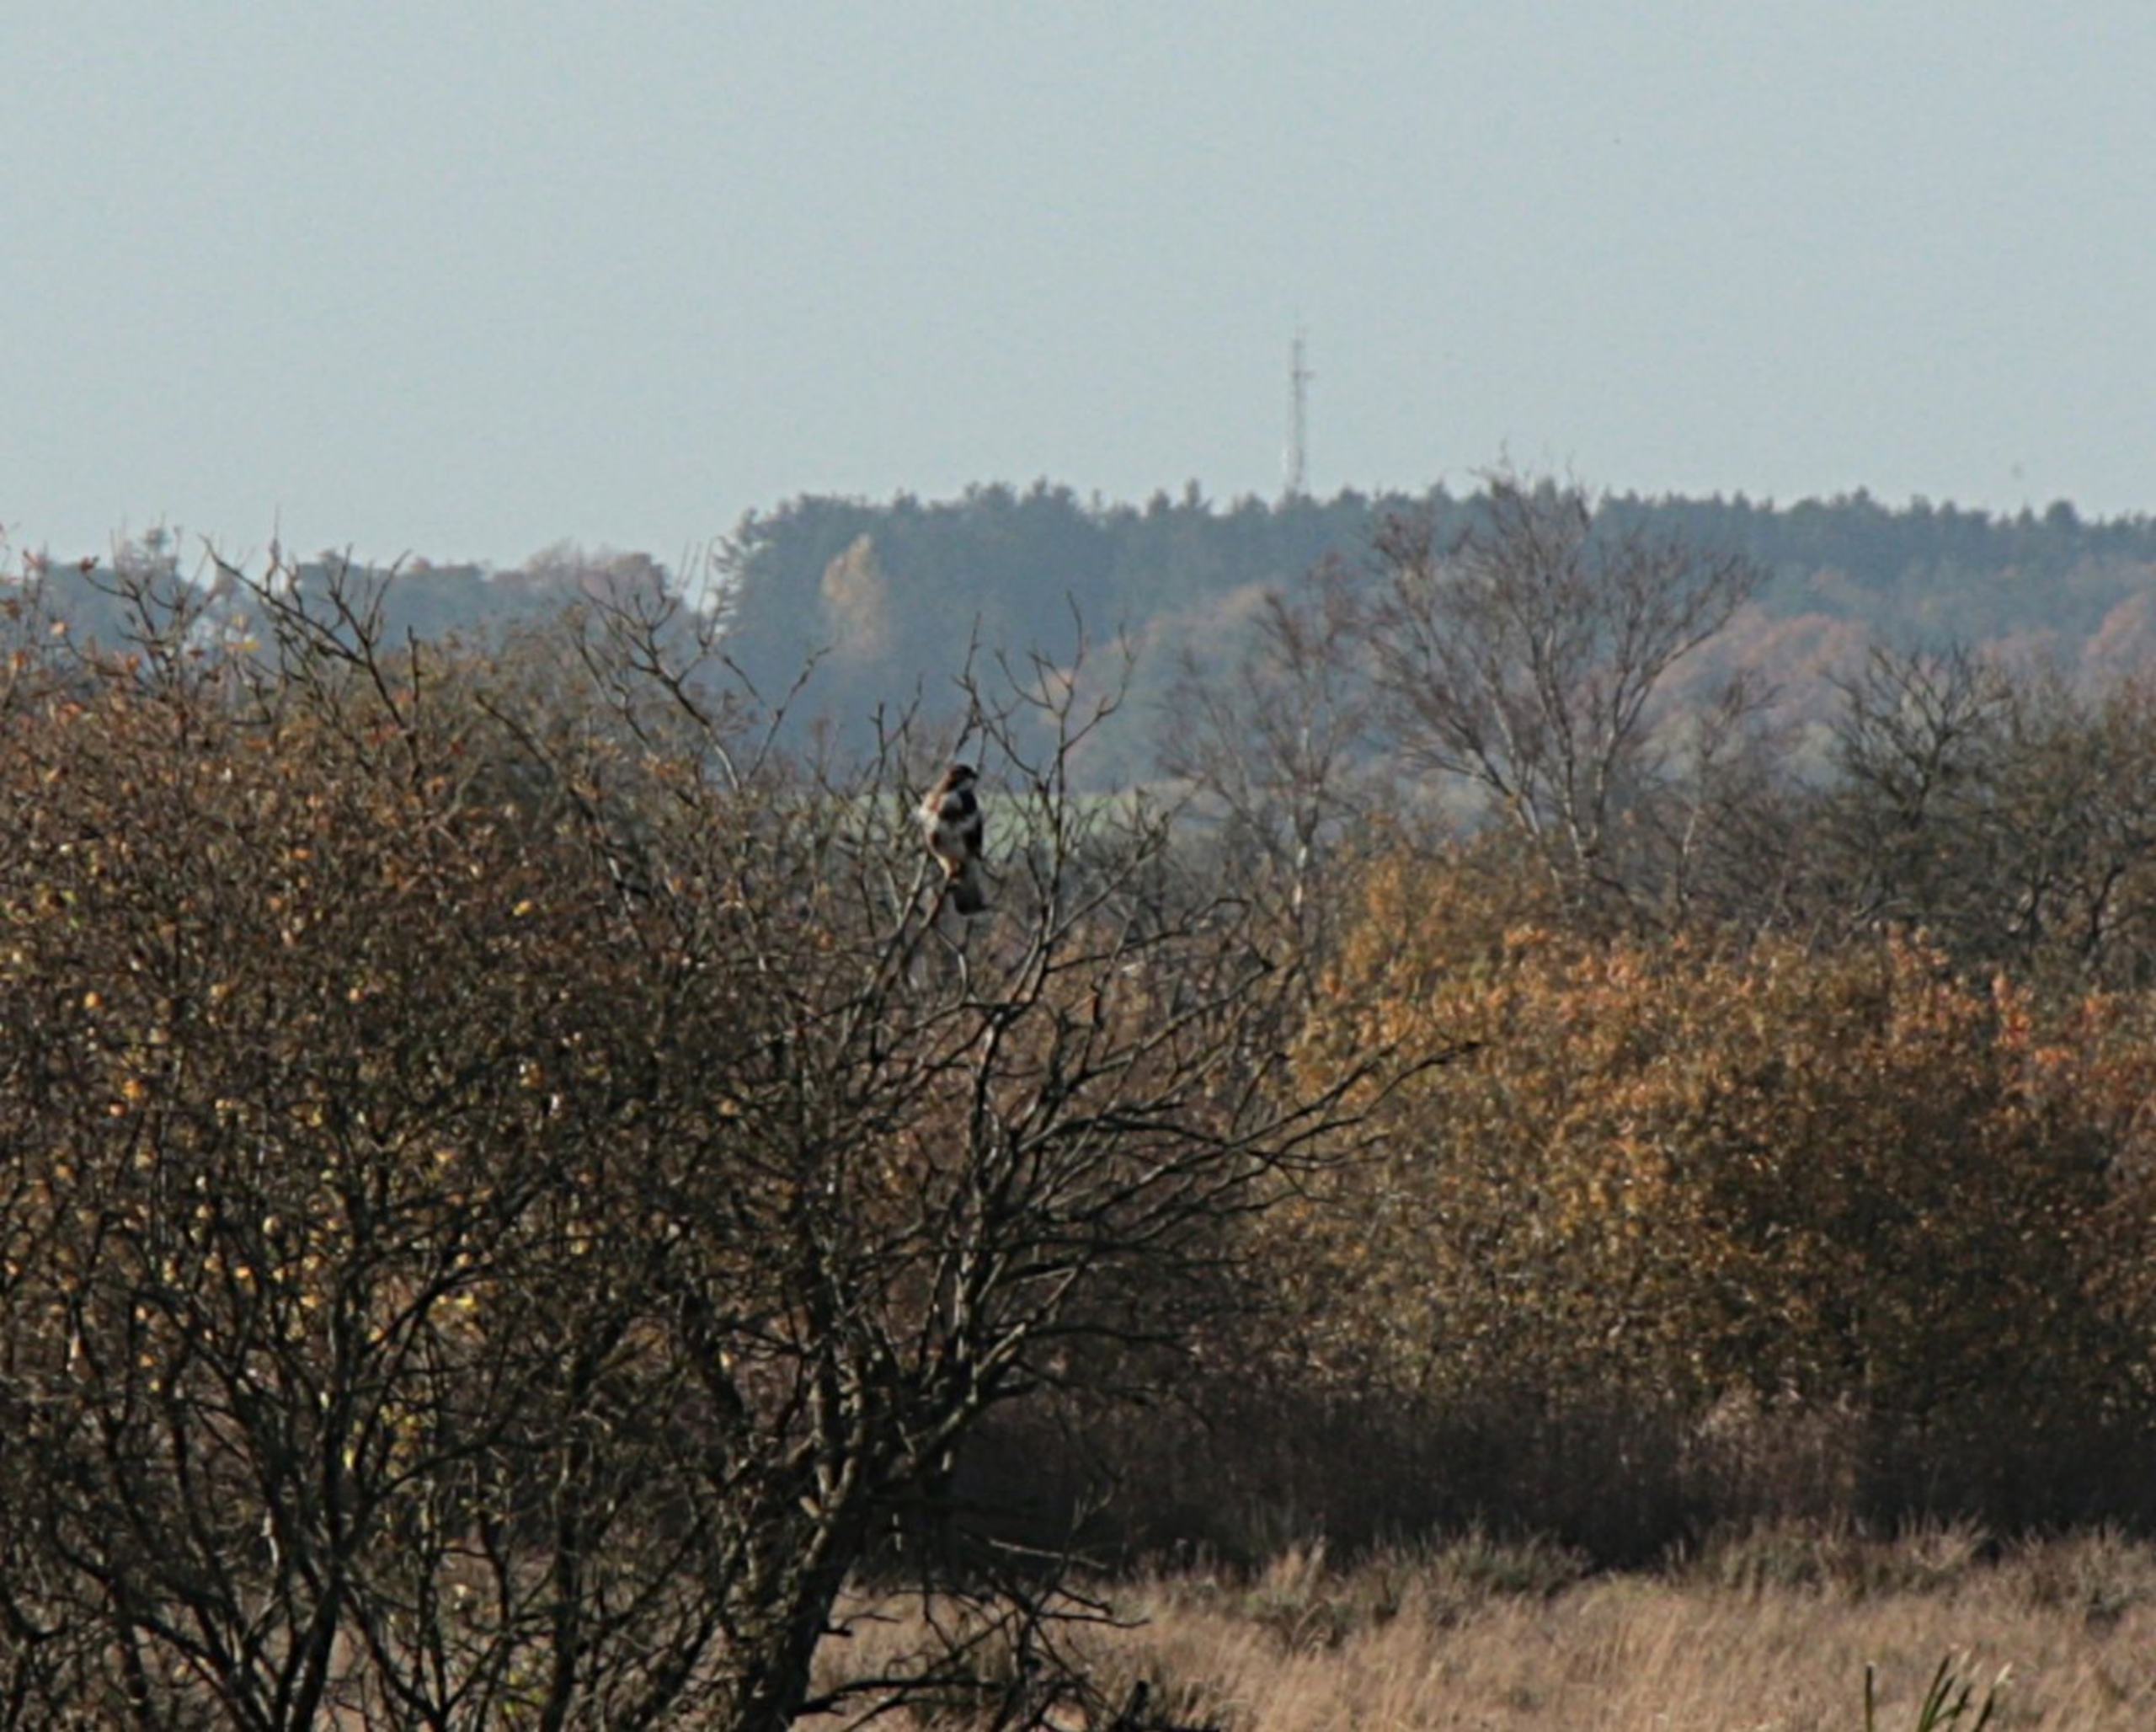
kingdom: Animalia
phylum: Chordata
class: Aves
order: Accipitriformes
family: Accipitridae
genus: Buteo
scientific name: Buteo buteo
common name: Musvåge
